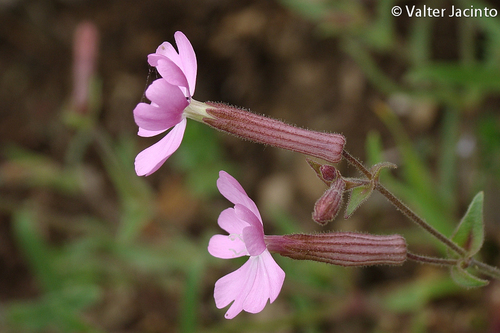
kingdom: Plantae
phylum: Tracheophyta
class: Magnoliopsida
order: Caryophyllales
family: Caryophyllaceae
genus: Silene
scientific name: Silene psammitis
